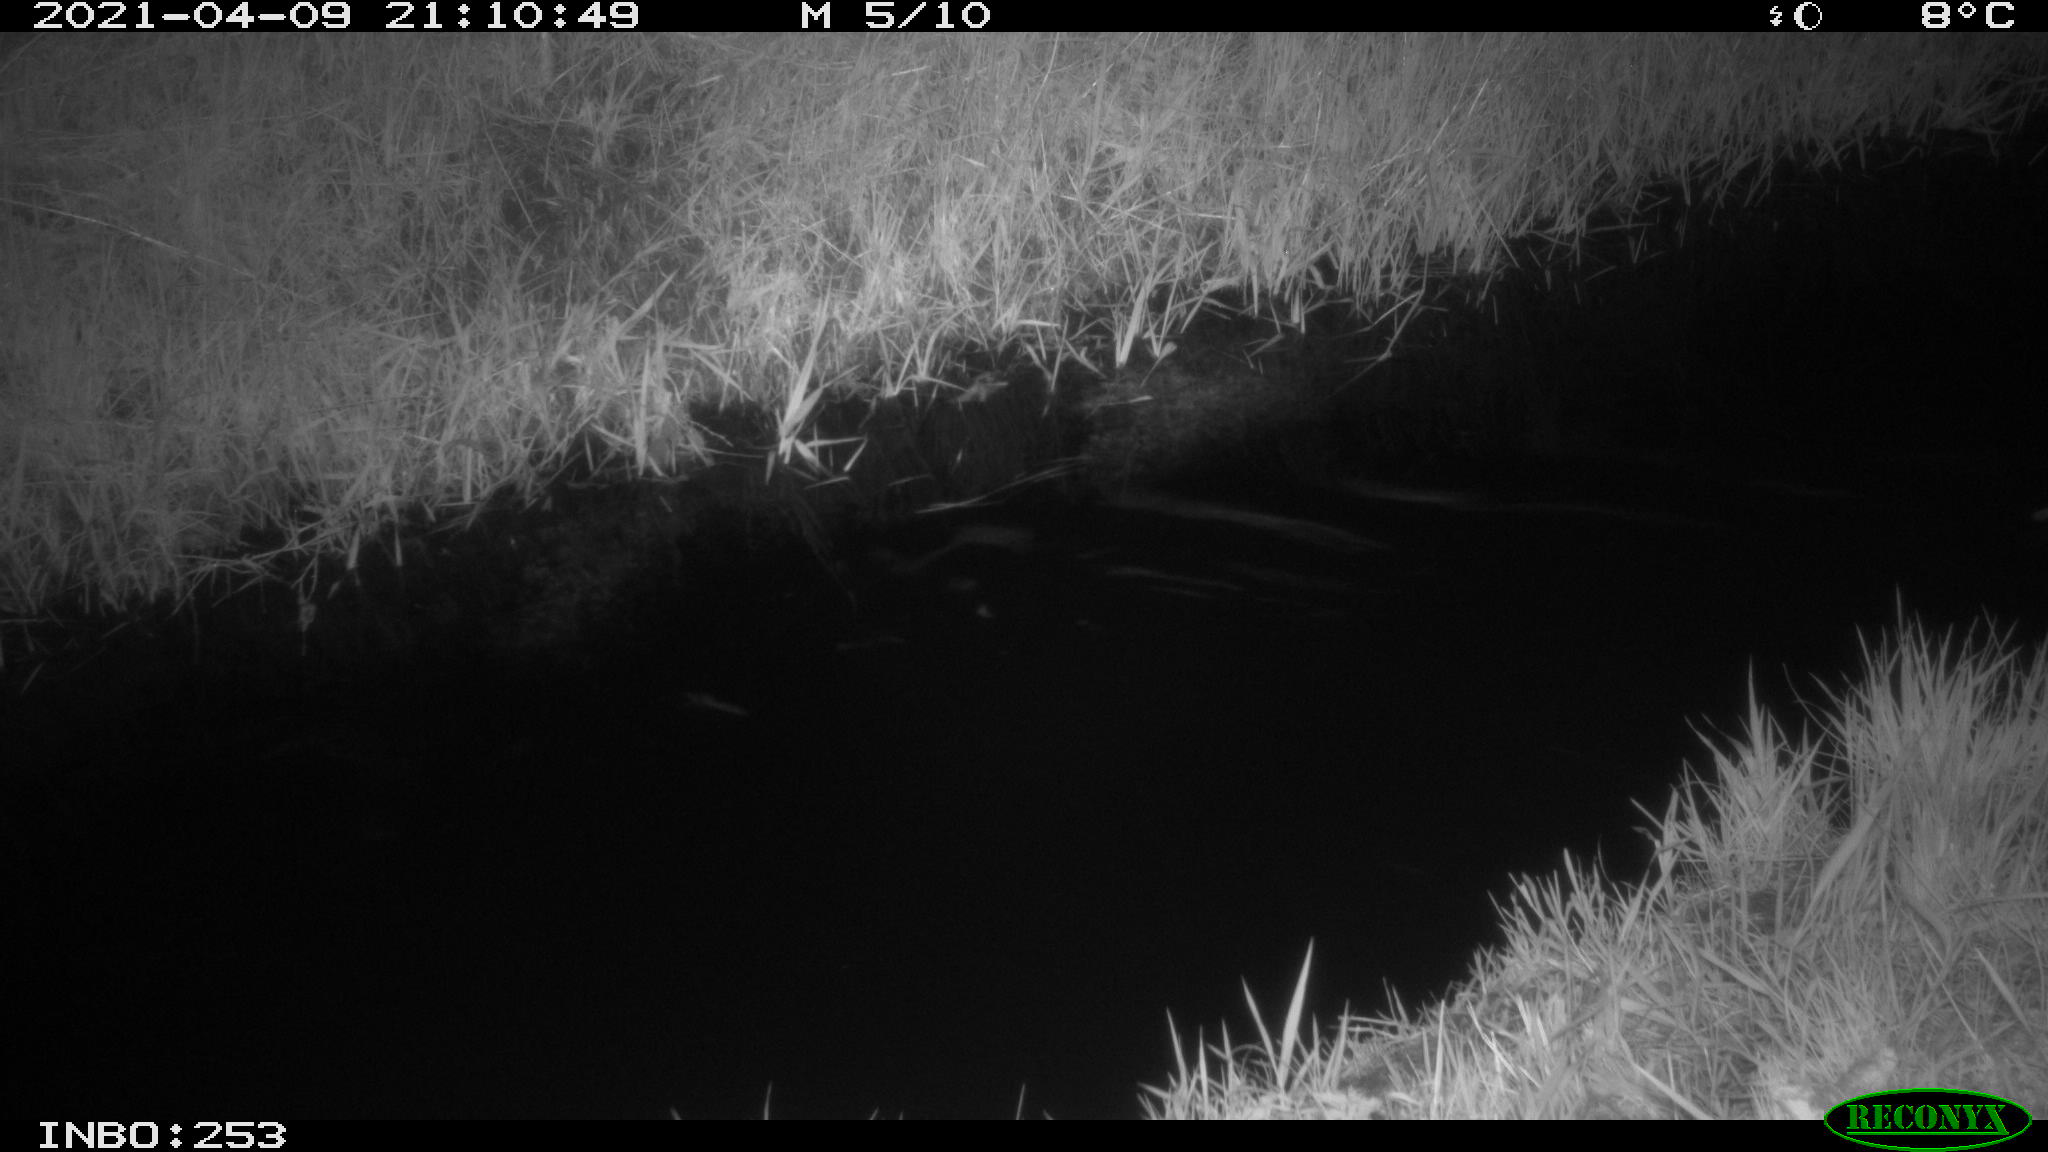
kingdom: Animalia
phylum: Chordata
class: Aves
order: Anseriformes
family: Anatidae
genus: Anas
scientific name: Anas platyrhynchos
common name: Mallard
